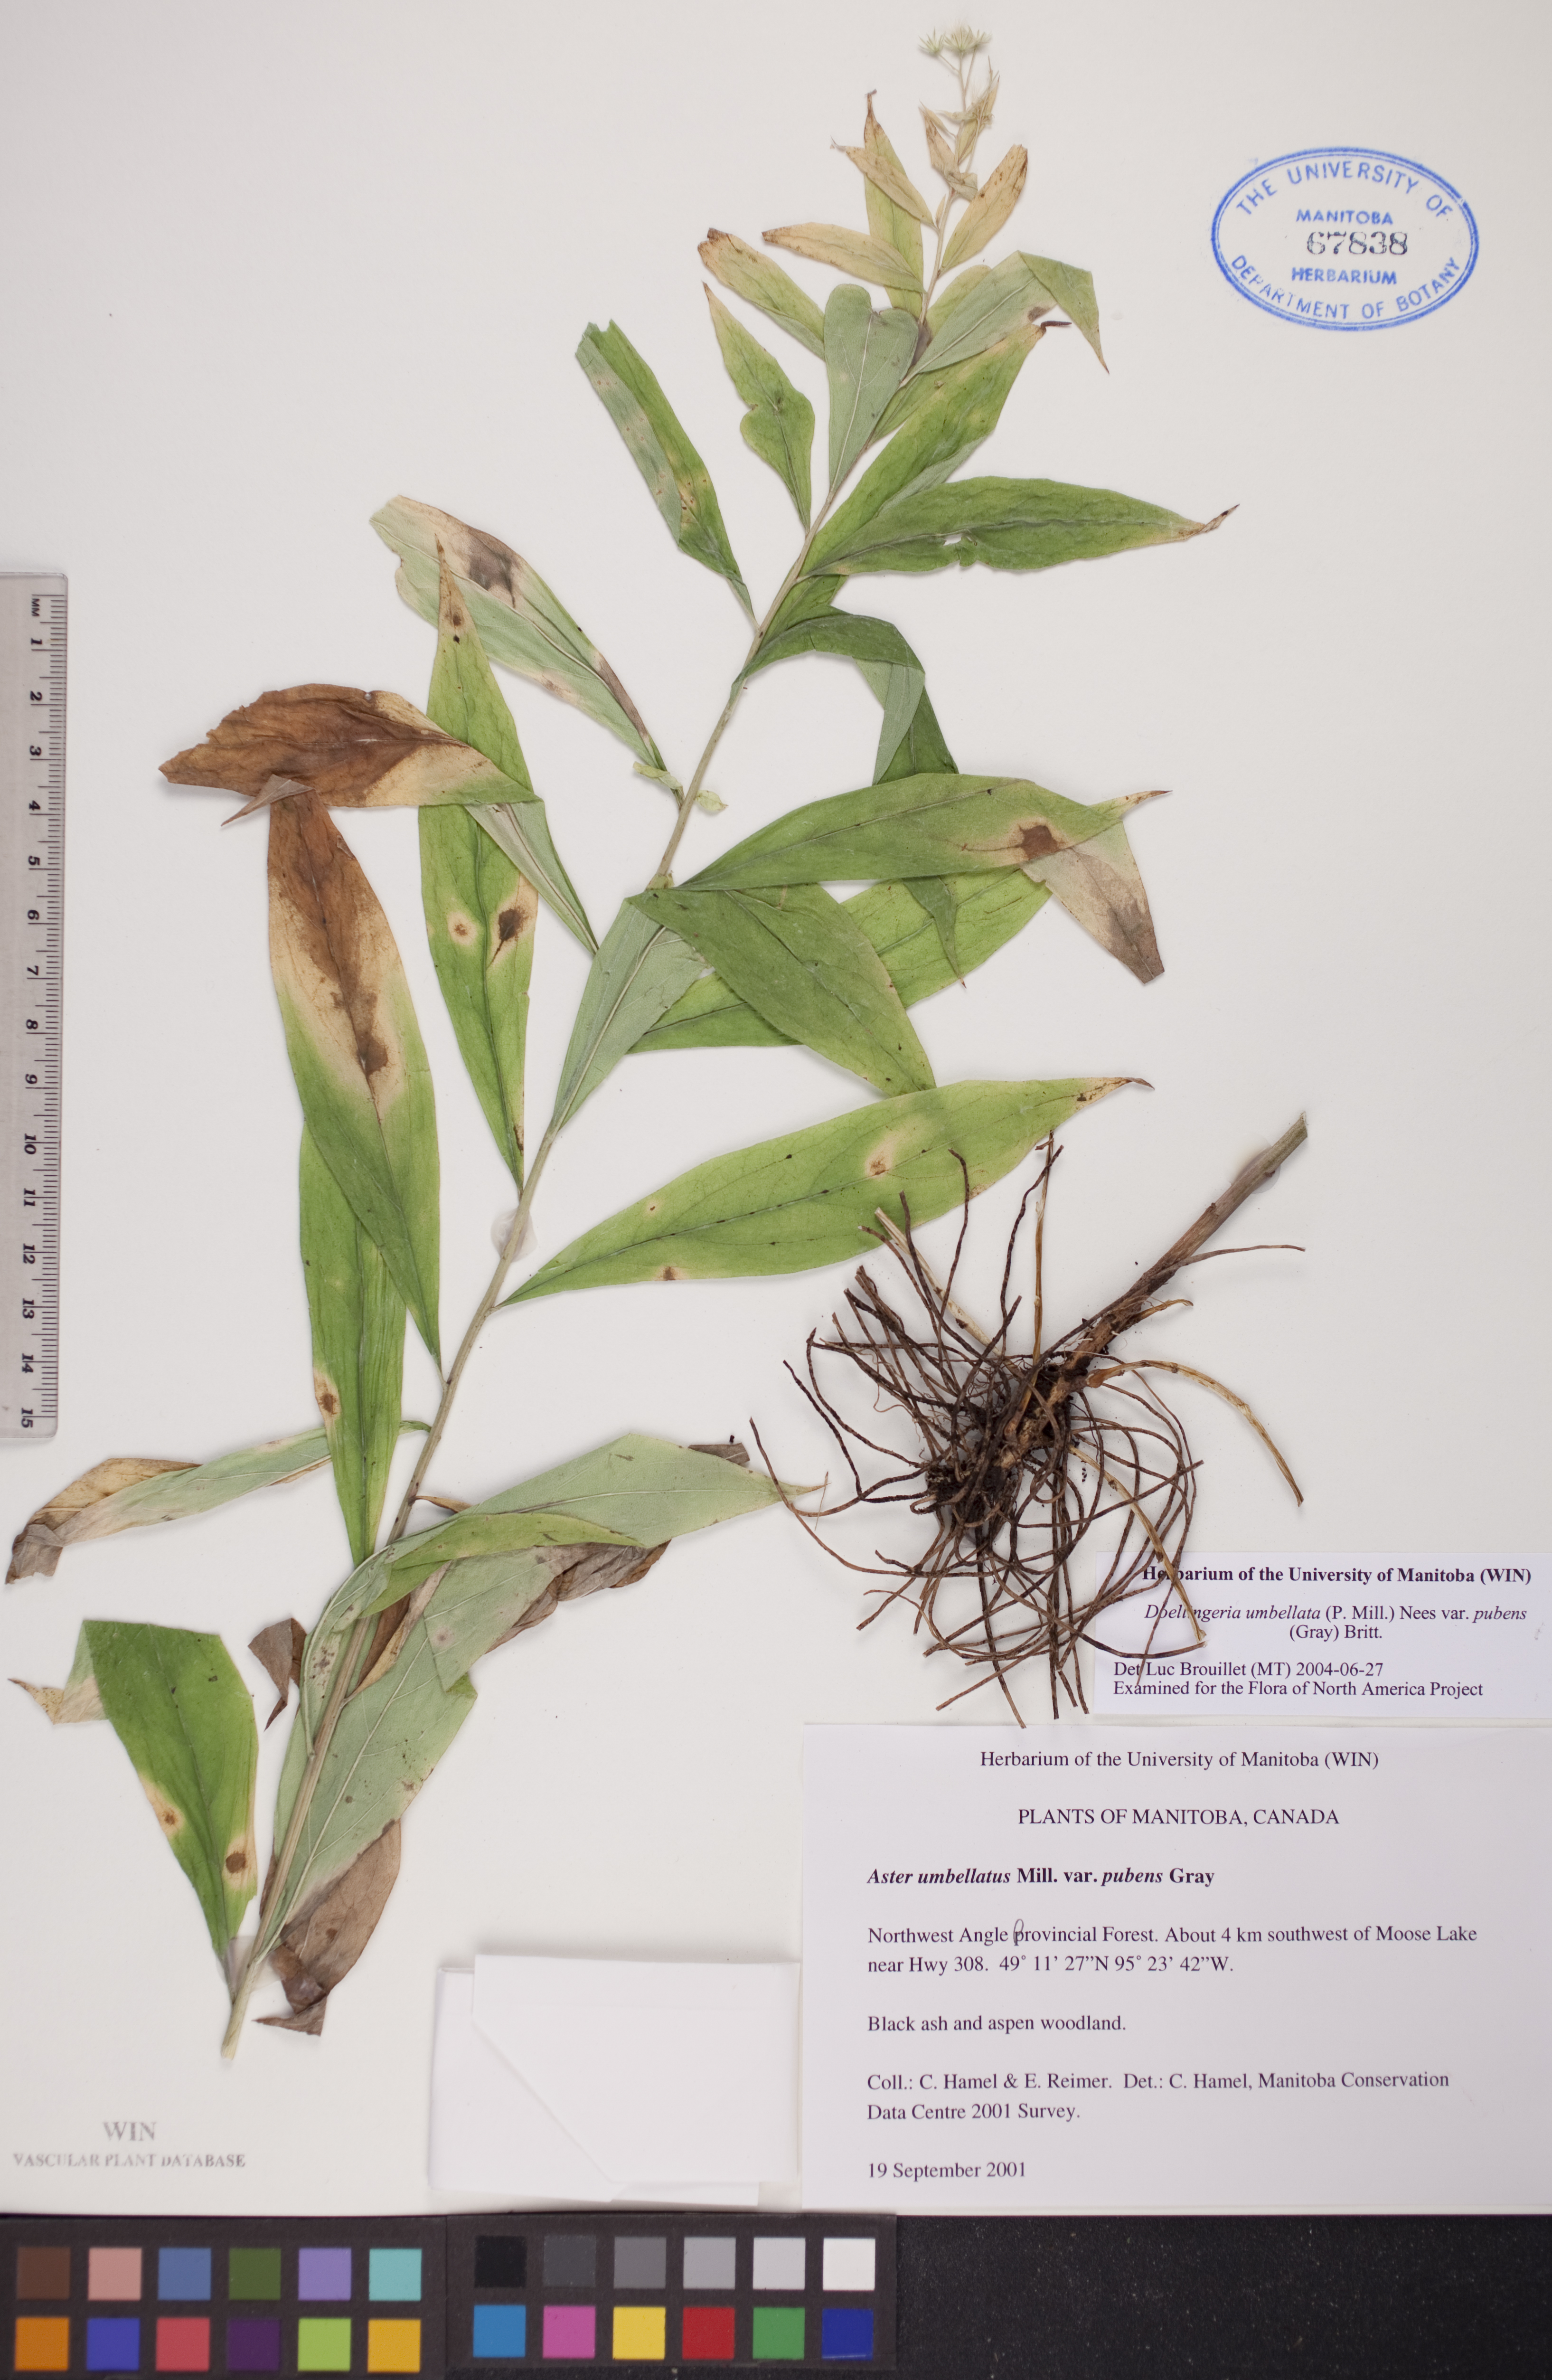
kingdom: Plantae
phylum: Tracheophyta
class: Magnoliopsida
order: Asterales
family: Asteraceae
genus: Doellingeria
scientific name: Doellingeria umbellata
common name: Flat-top white aster
